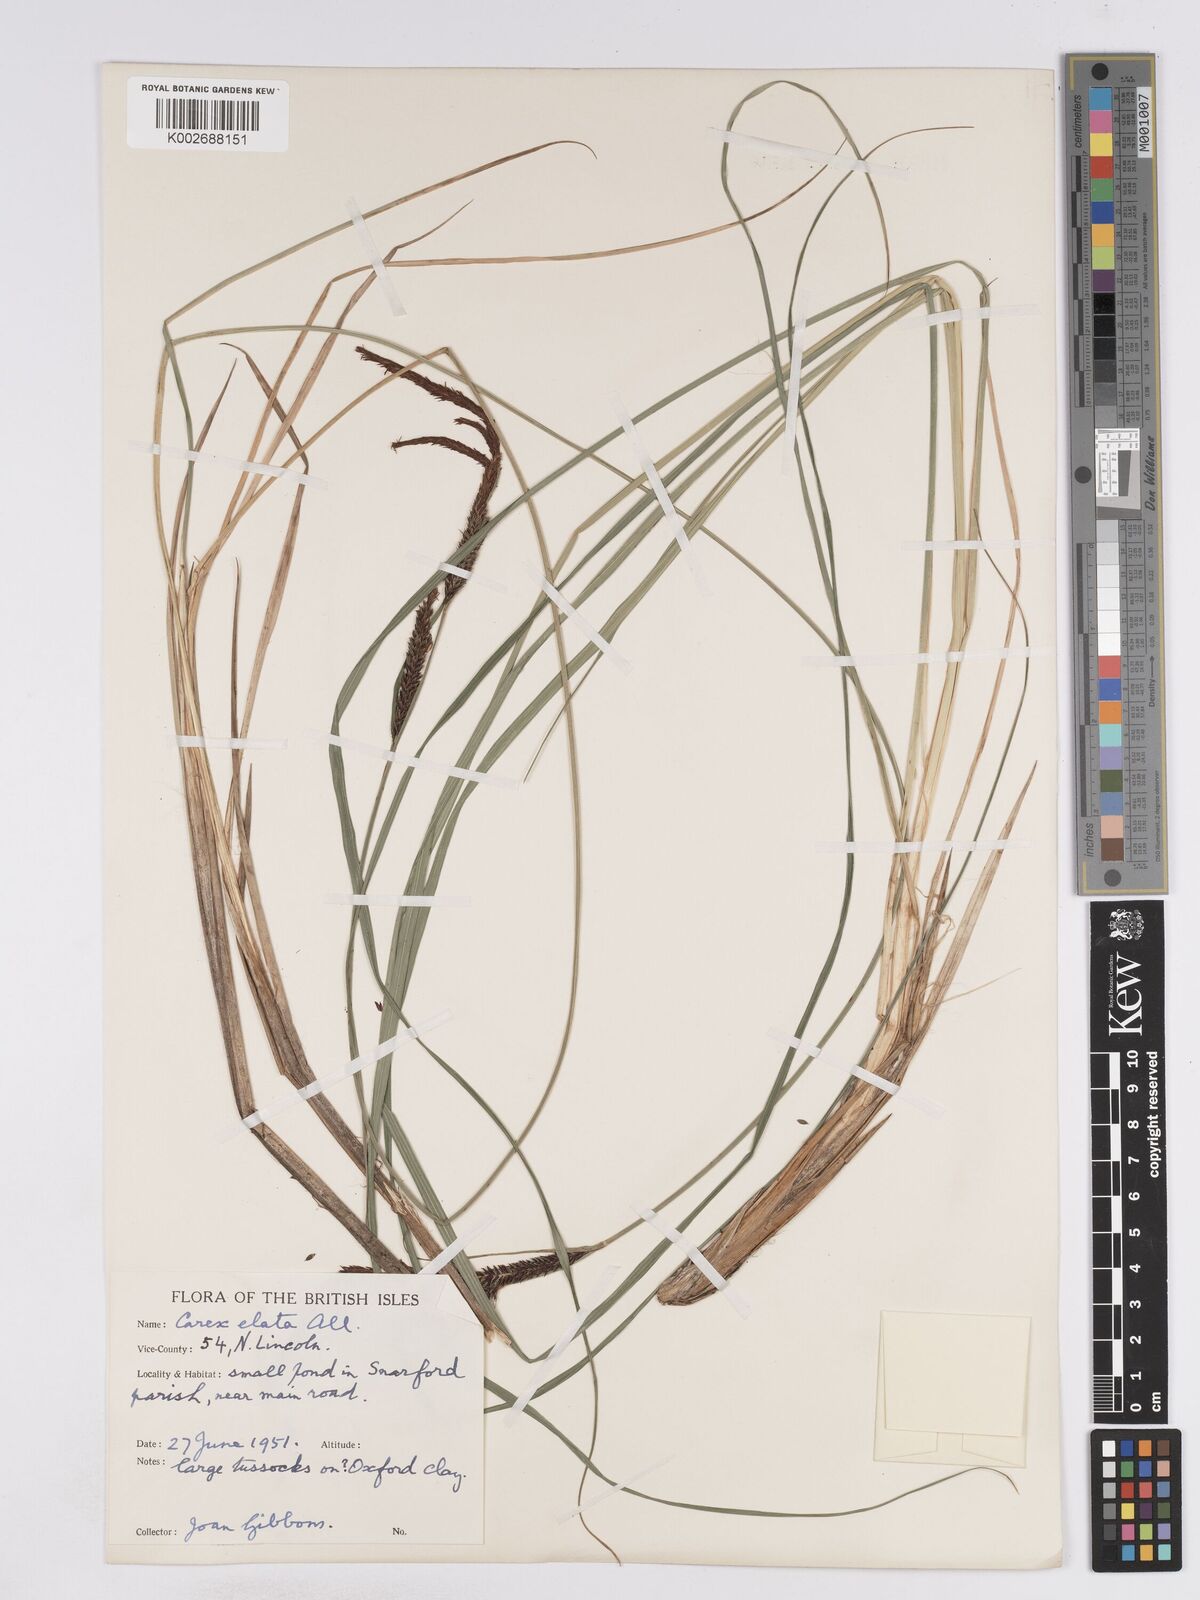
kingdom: Plantae
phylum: Tracheophyta
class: Liliopsida
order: Poales
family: Cyperaceae
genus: Carex
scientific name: Carex elata
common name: Tufted sedge
